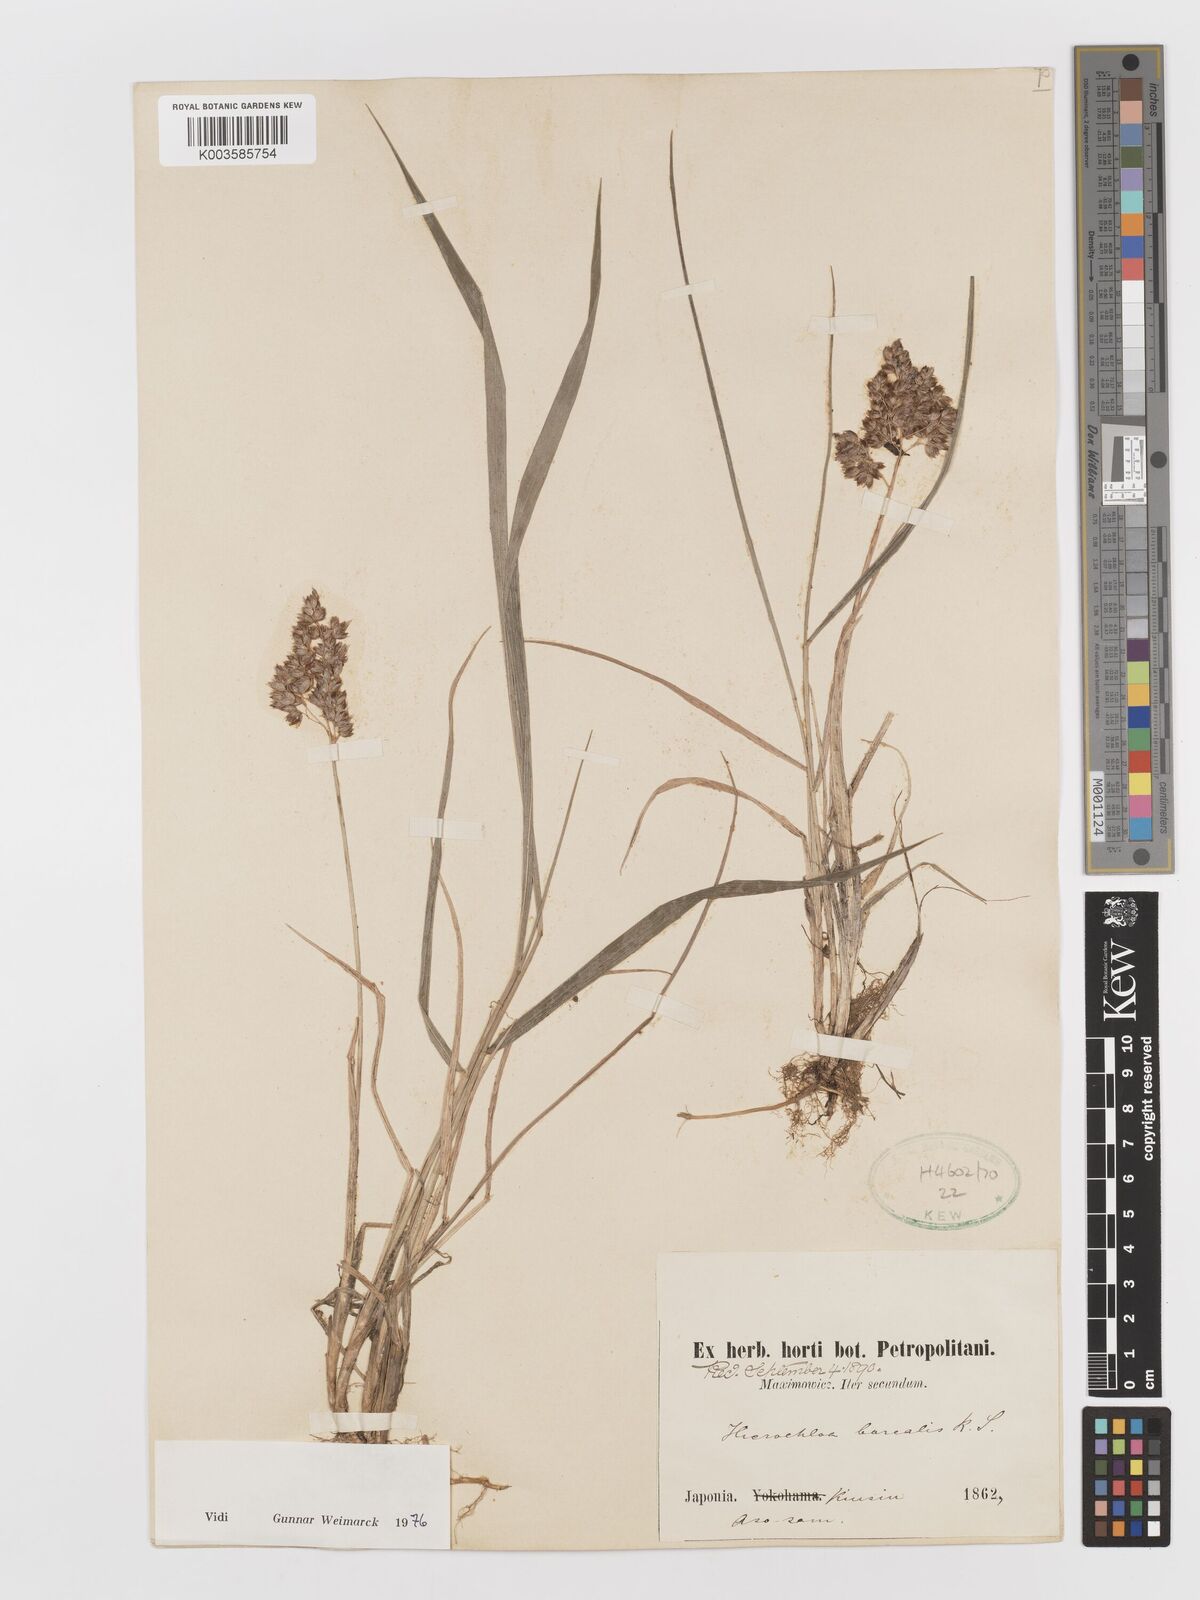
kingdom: Plantae
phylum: Tracheophyta
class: Liliopsida
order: Poales
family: Poaceae
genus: Anthoxanthum
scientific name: Anthoxanthum nitens
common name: Holy grass
